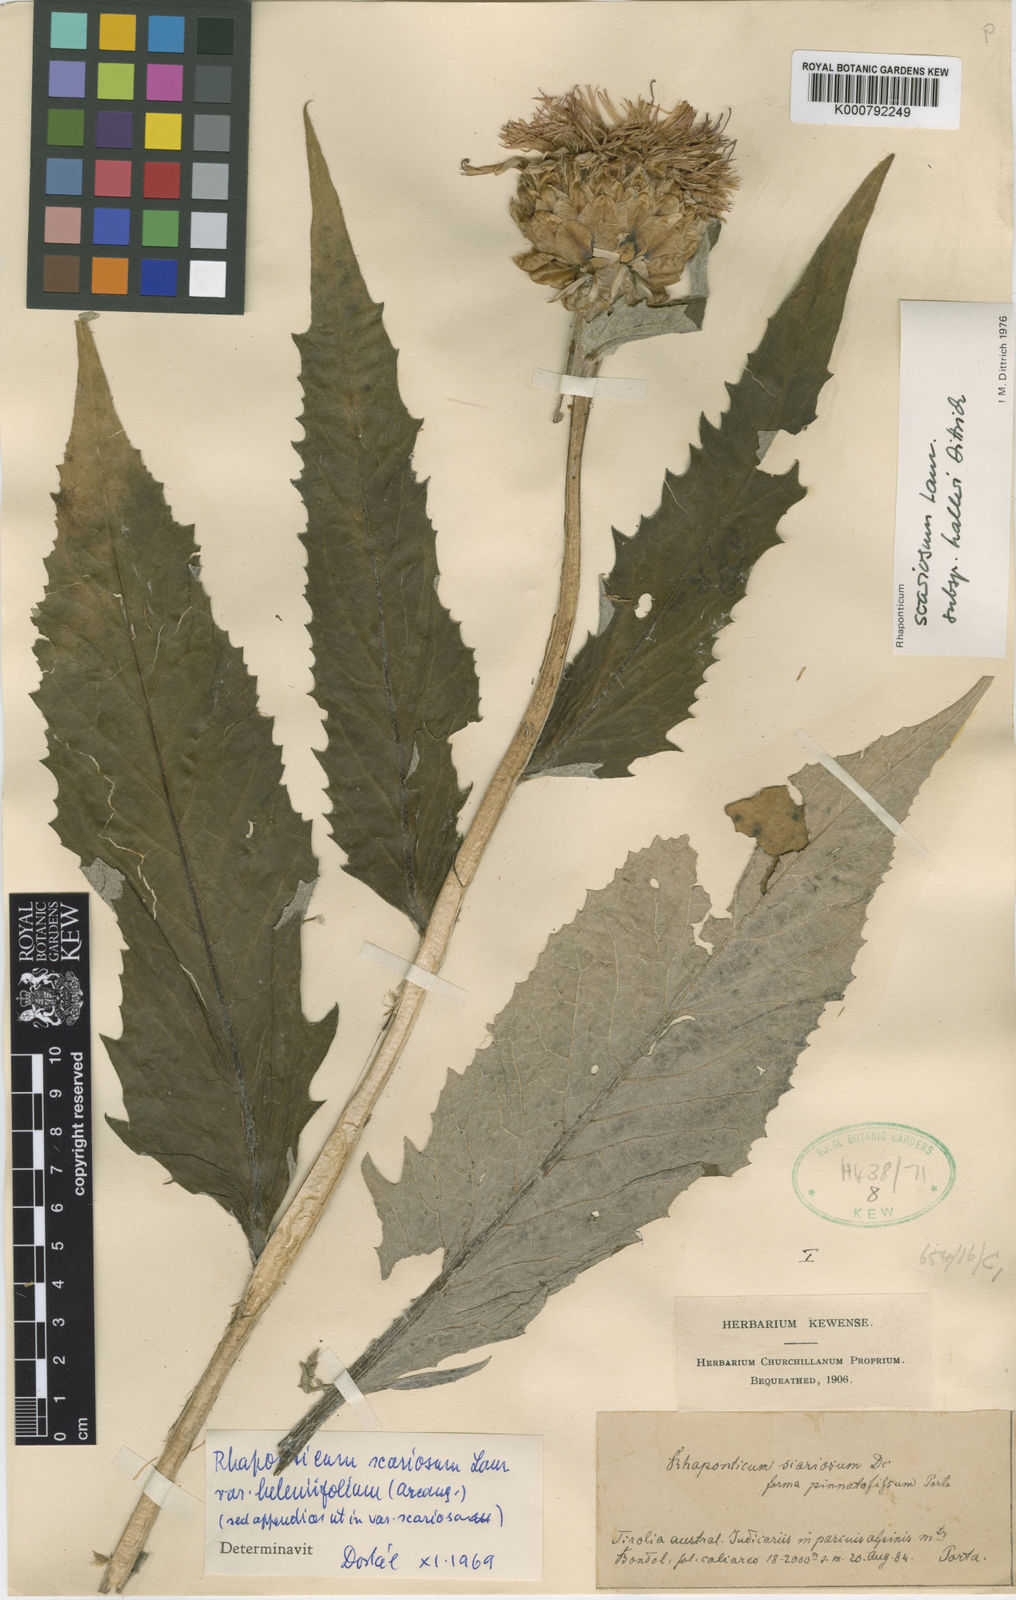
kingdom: Plantae
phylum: Tracheophyta
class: Magnoliopsida
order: Asterales
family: Asteraceae
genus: Leuzea
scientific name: Leuzea
